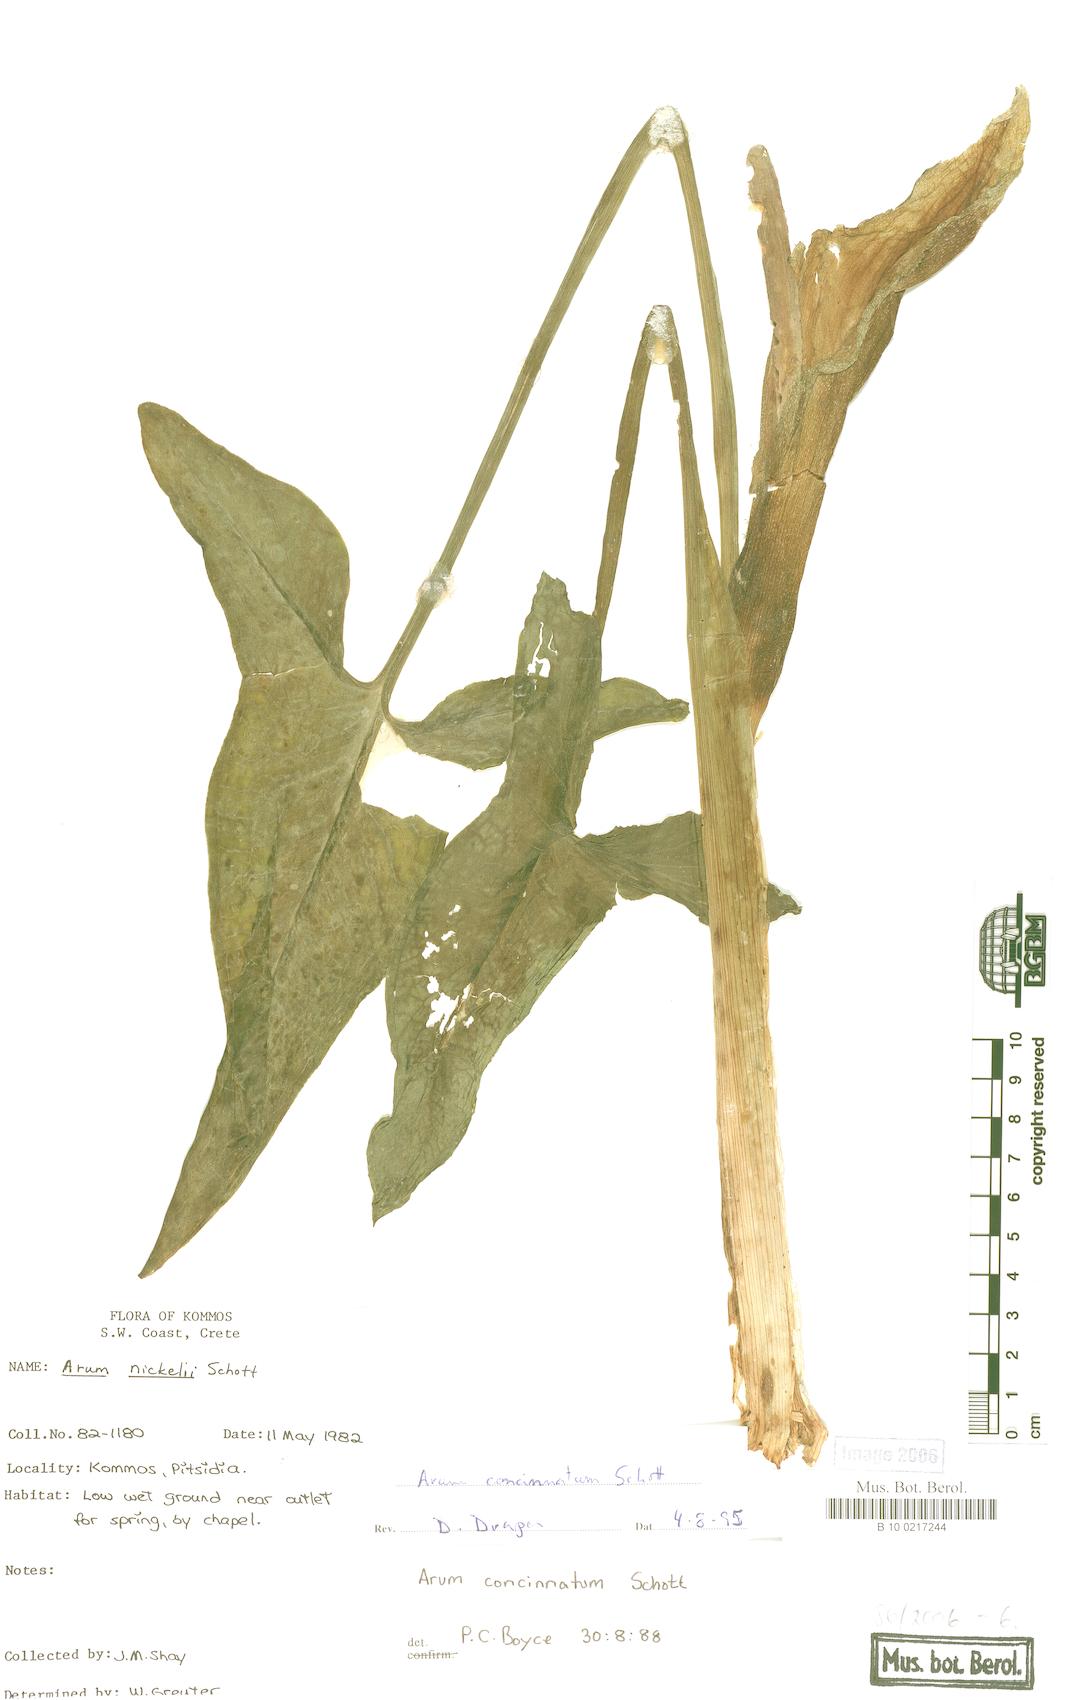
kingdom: Plantae
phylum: Tracheophyta
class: Liliopsida
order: Alismatales
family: Araceae
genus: Arum
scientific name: Arum concinnatum
